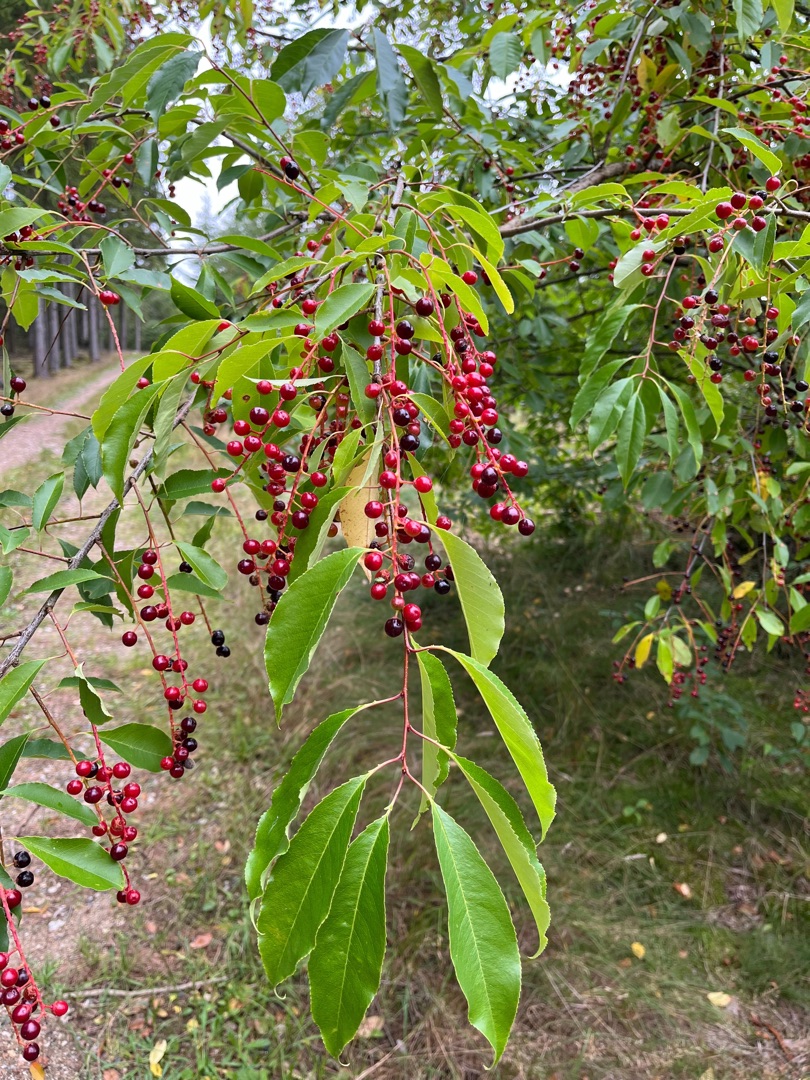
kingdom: Plantae
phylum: Tracheophyta
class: Magnoliopsida
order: Rosales
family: Rosaceae
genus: Prunus
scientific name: Prunus serotina
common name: Glansbladet hæg
